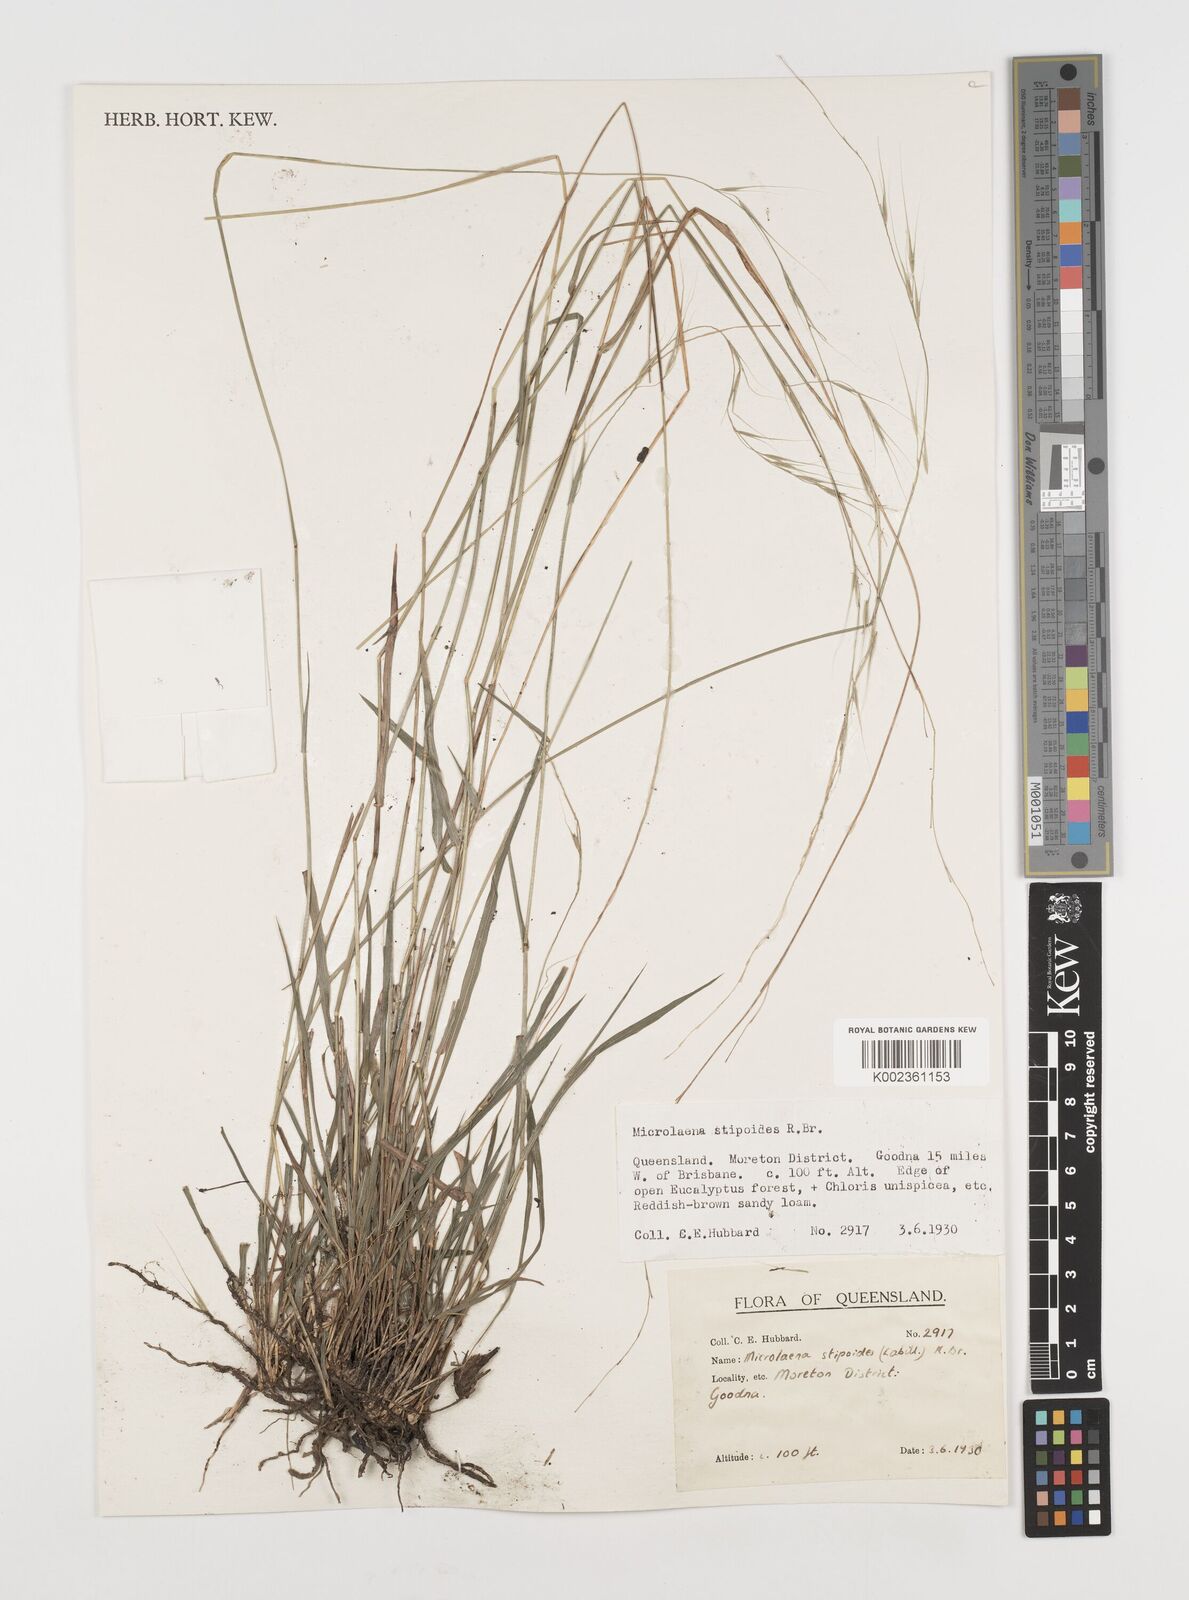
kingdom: Plantae
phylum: Tracheophyta
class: Liliopsida
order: Poales
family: Poaceae
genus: Microlaena
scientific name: Microlaena stipoides
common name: Meadow ricegrass
